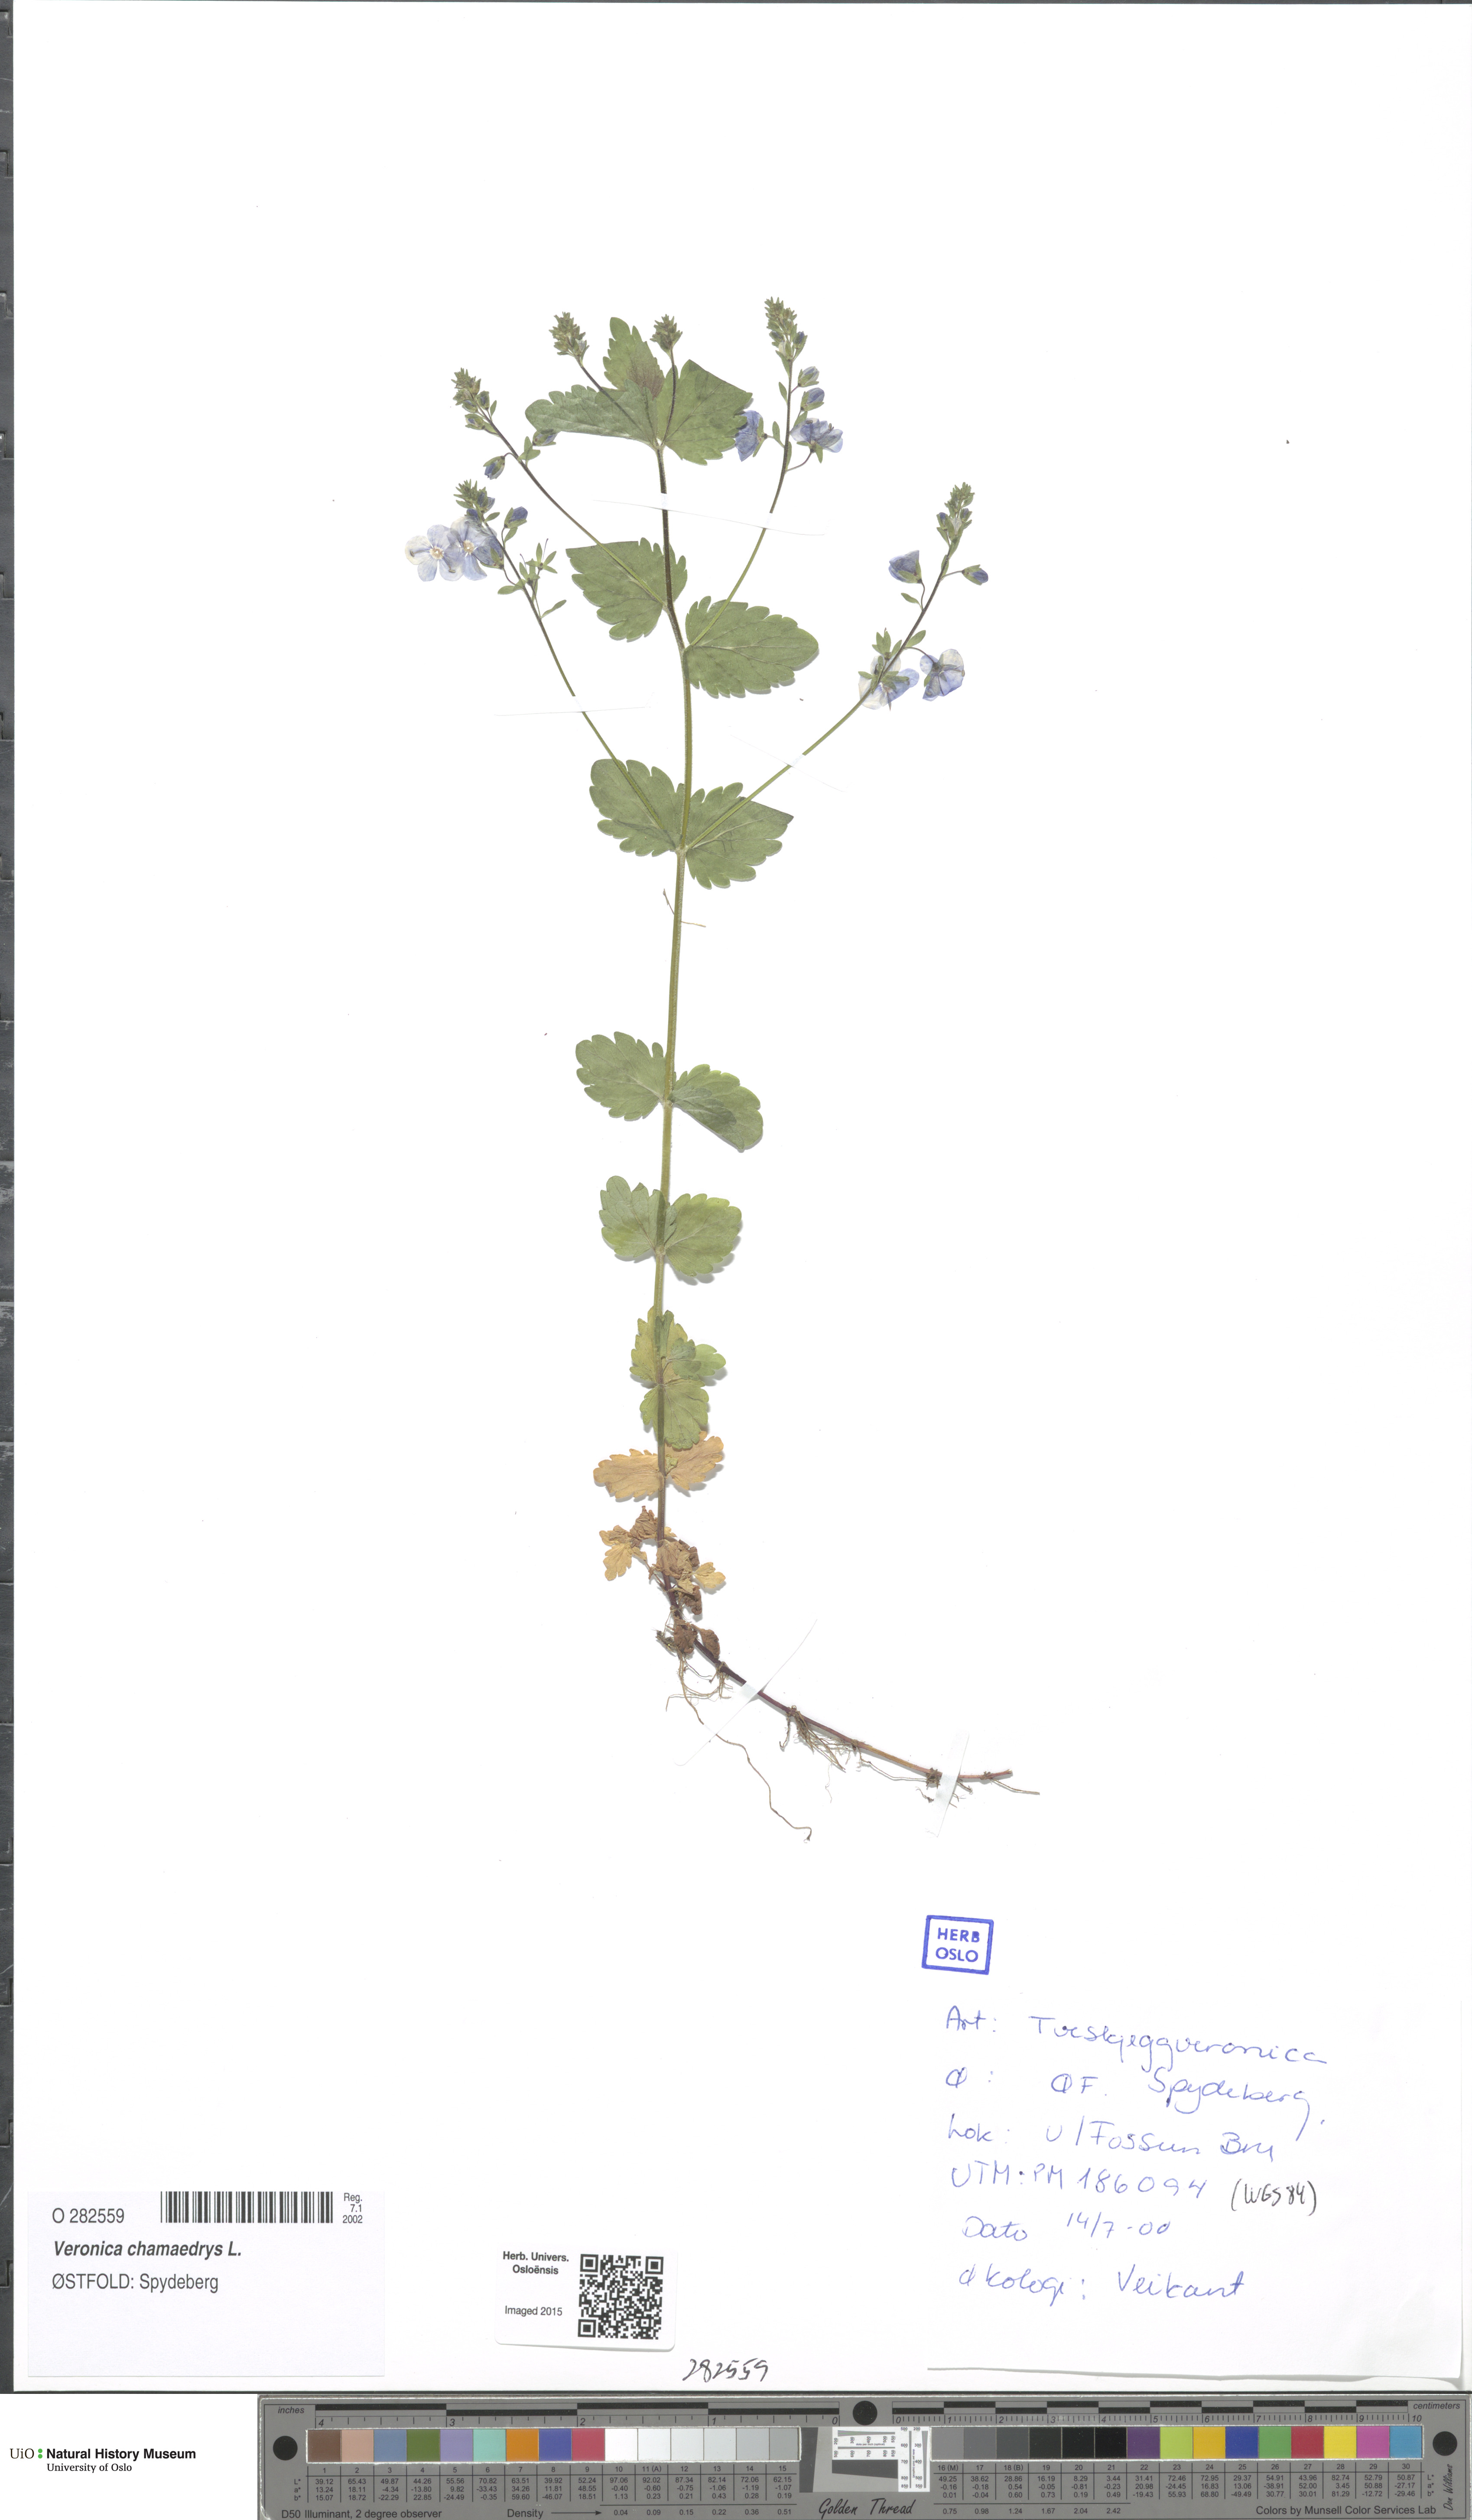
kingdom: Plantae
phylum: Tracheophyta
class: Magnoliopsida
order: Lamiales
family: Plantaginaceae
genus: Veronica
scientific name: Veronica chamaedrys
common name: Germander speedwell
